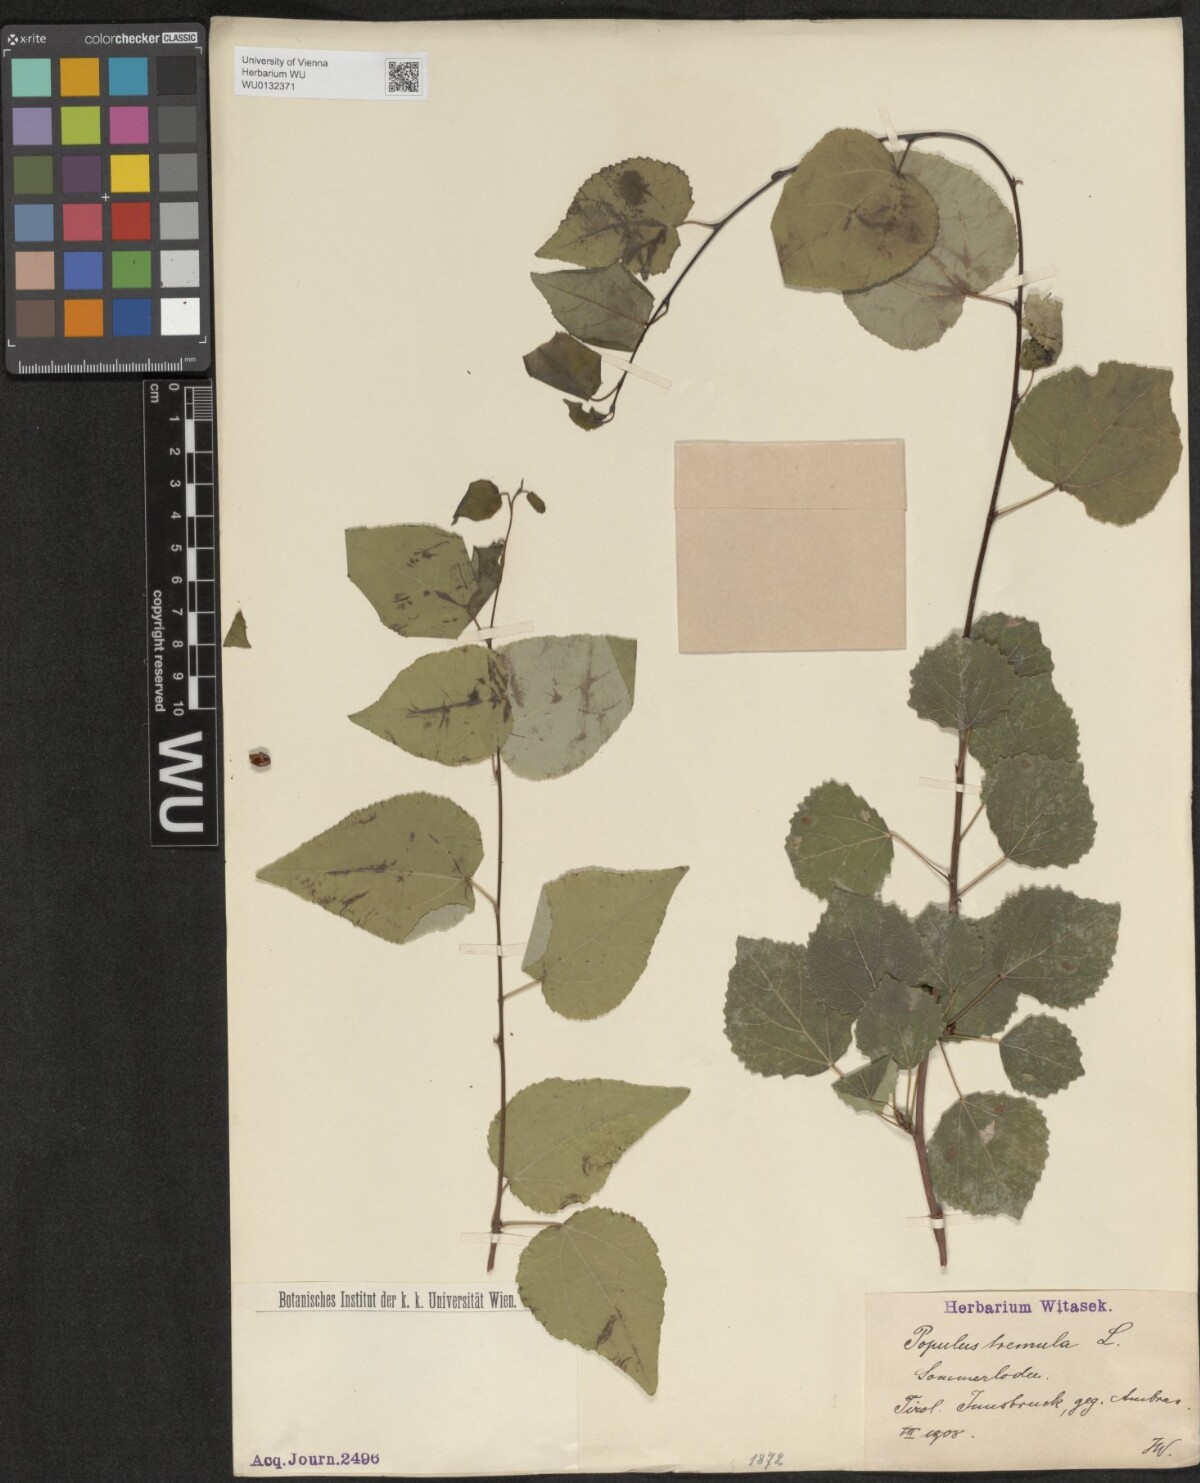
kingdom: Plantae
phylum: Tracheophyta
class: Magnoliopsida
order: Malpighiales
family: Salicaceae
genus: Populus
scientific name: Populus tremula
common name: European aspen
